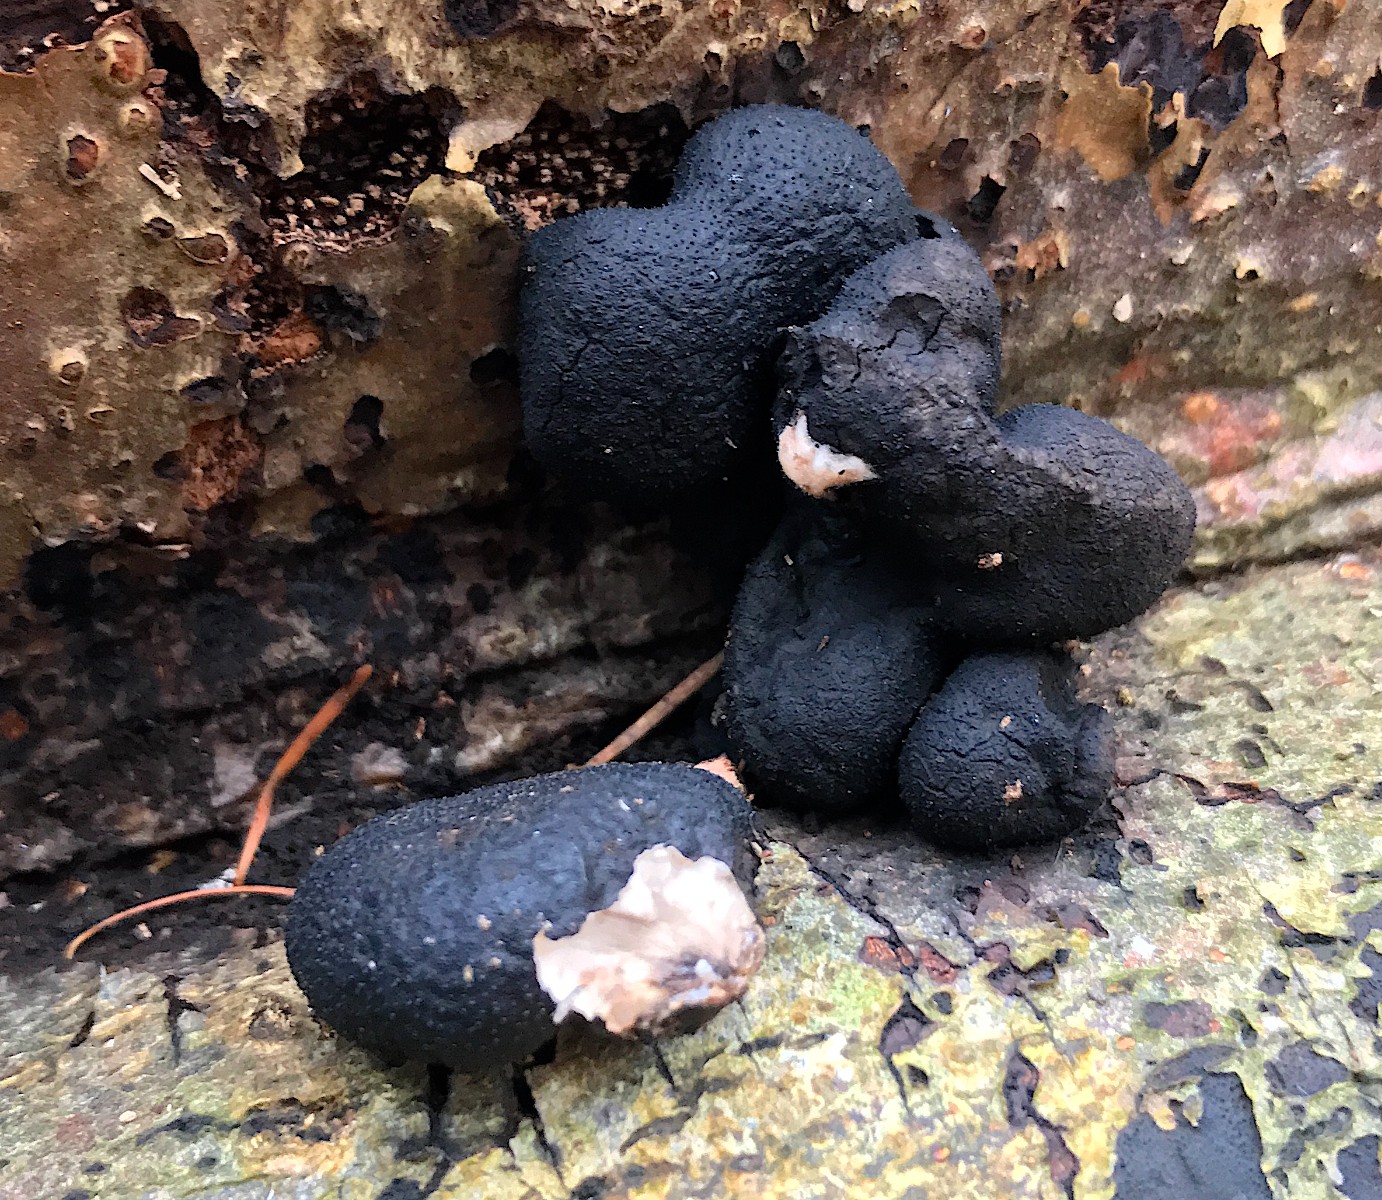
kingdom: Fungi
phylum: Ascomycota
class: Sordariomycetes
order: Xylariales
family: Xylariaceae
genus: Xylaria
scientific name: Xylaria polymorpha
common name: kølle-stødsvamp
